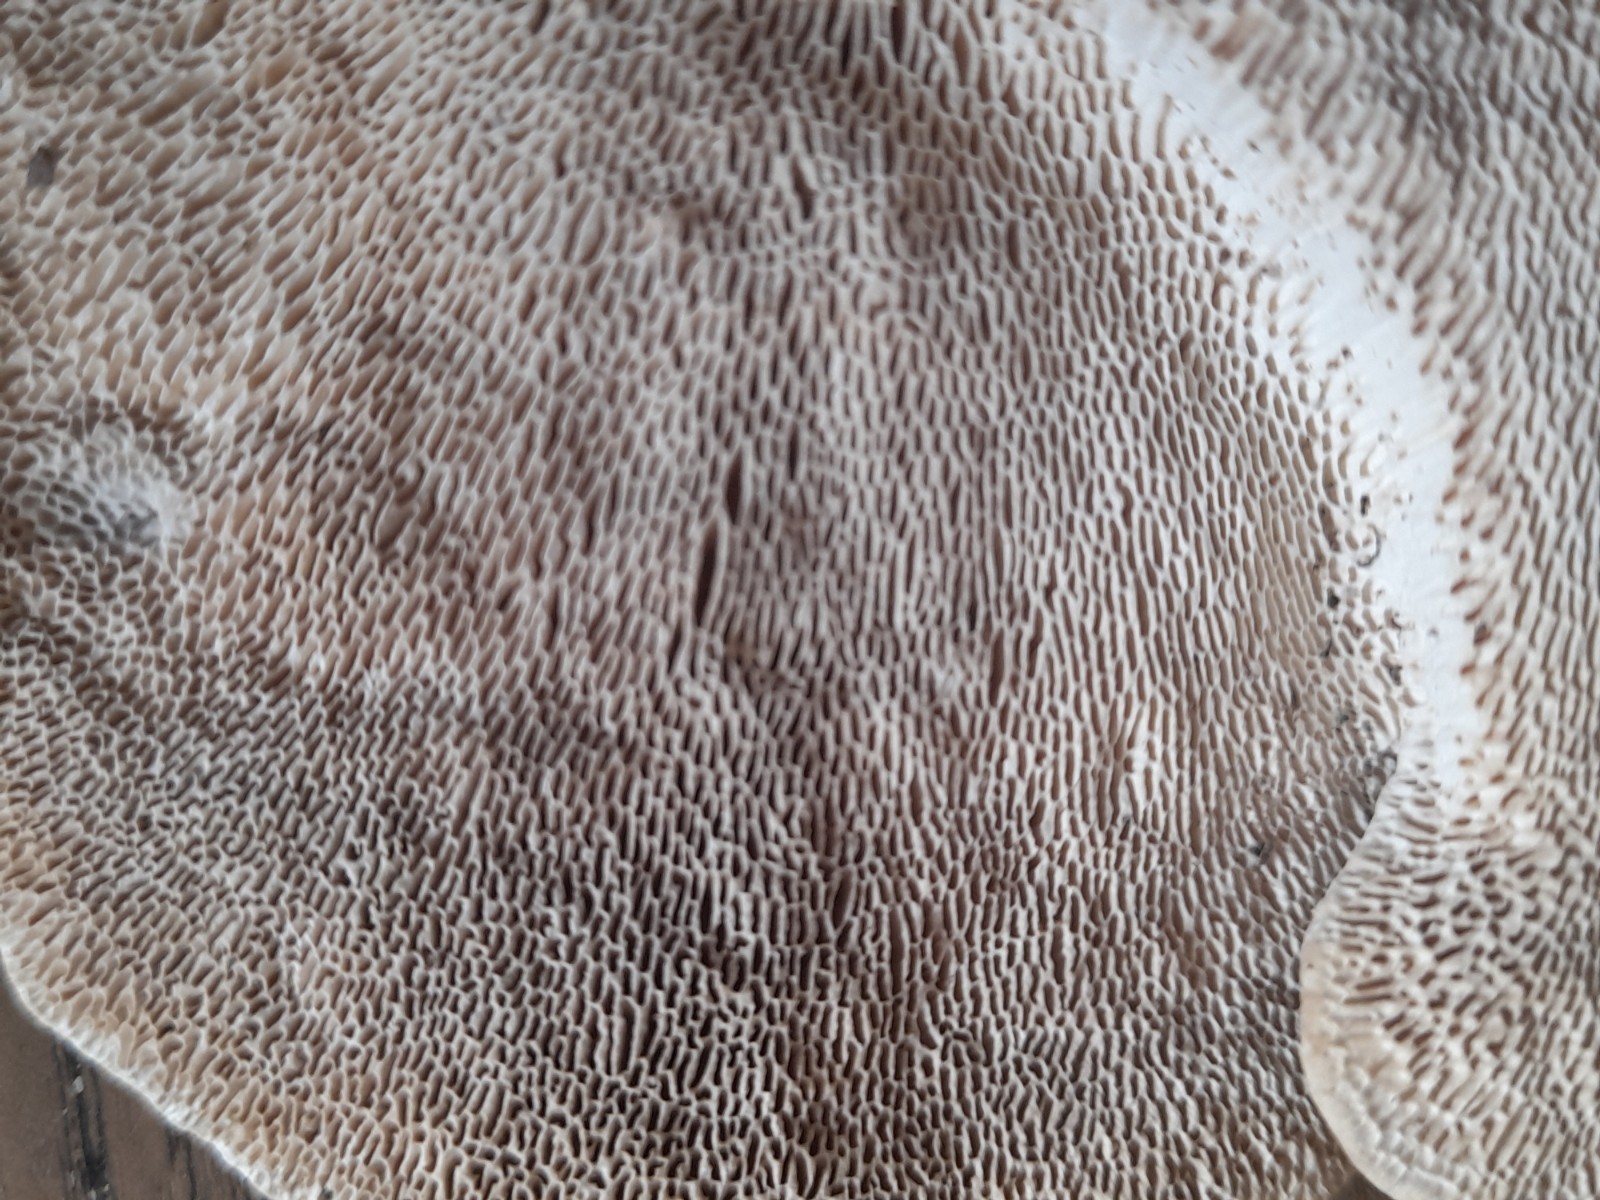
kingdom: Fungi
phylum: Basidiomycota
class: Agaricomycetes
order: Polyporales
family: Polyporaceae
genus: Trametes
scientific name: Trametes gibbosa
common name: puklet læderporesvamp
